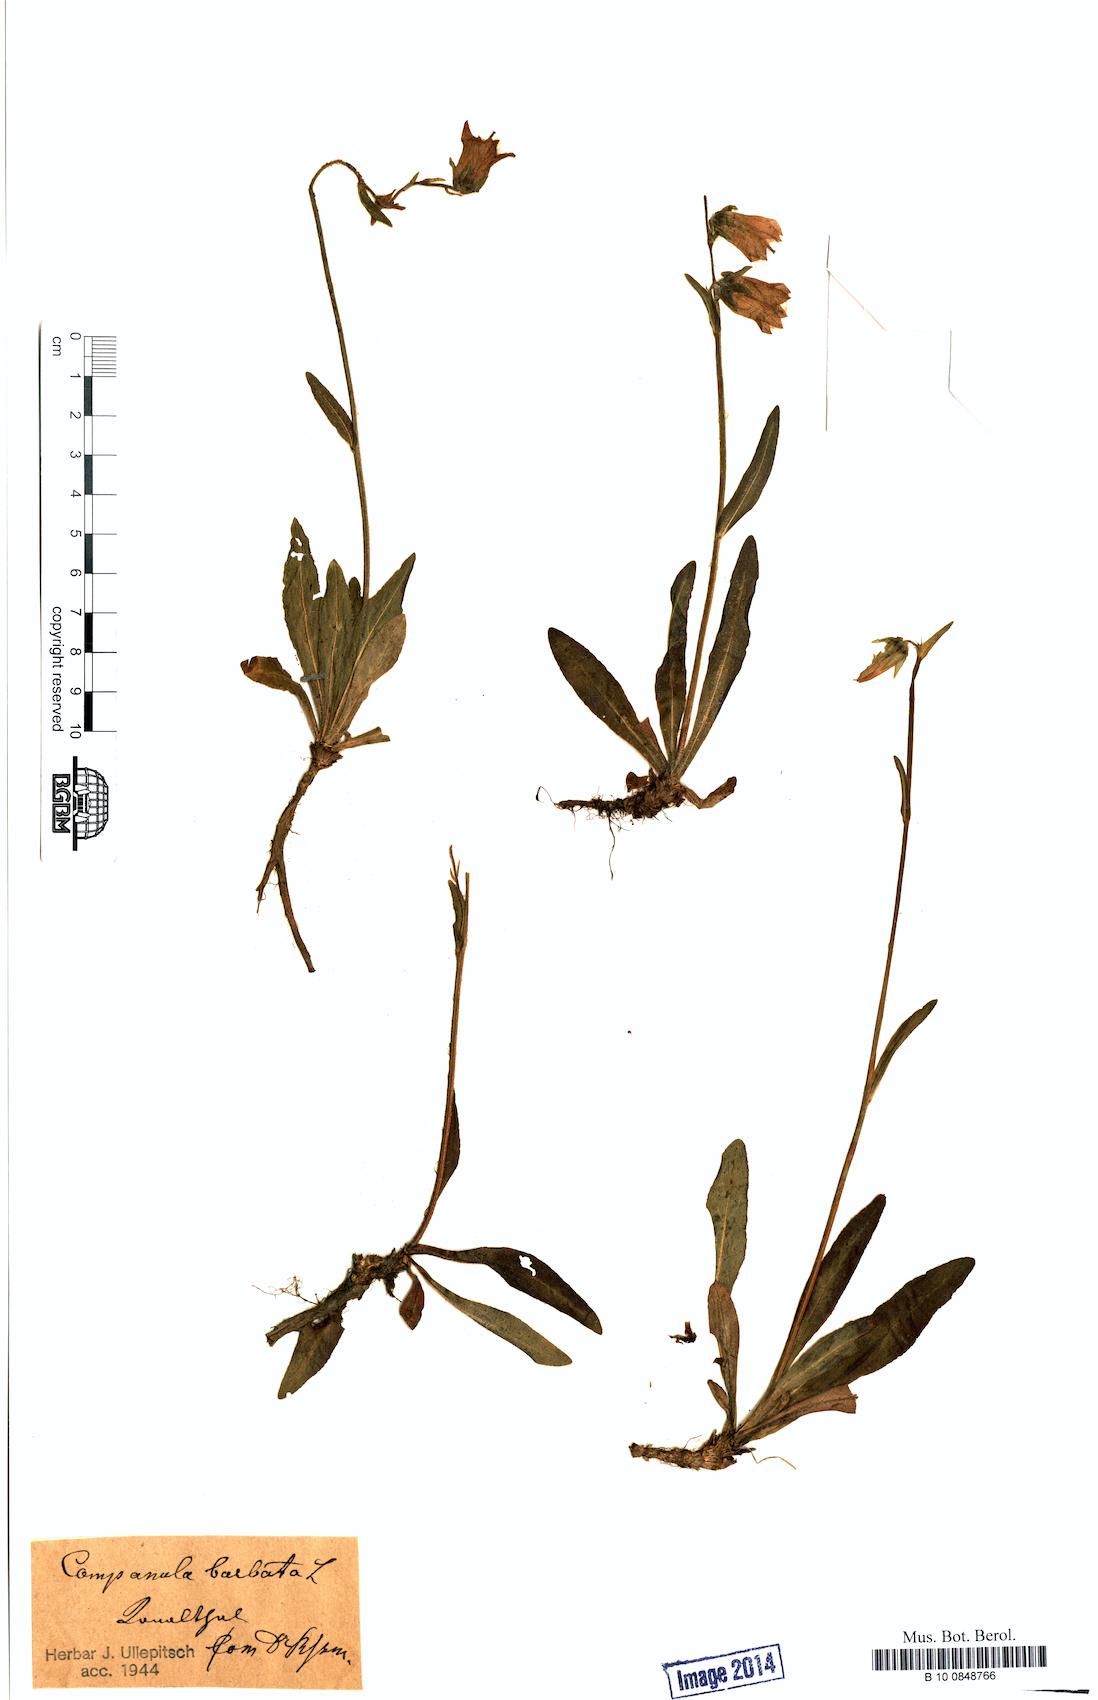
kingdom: Plantae
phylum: Tracheophyta
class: Magnoliopsida
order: Asterales
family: Campanulaceae
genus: Campanula
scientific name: Campanula barbata
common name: Bearded bellflower
